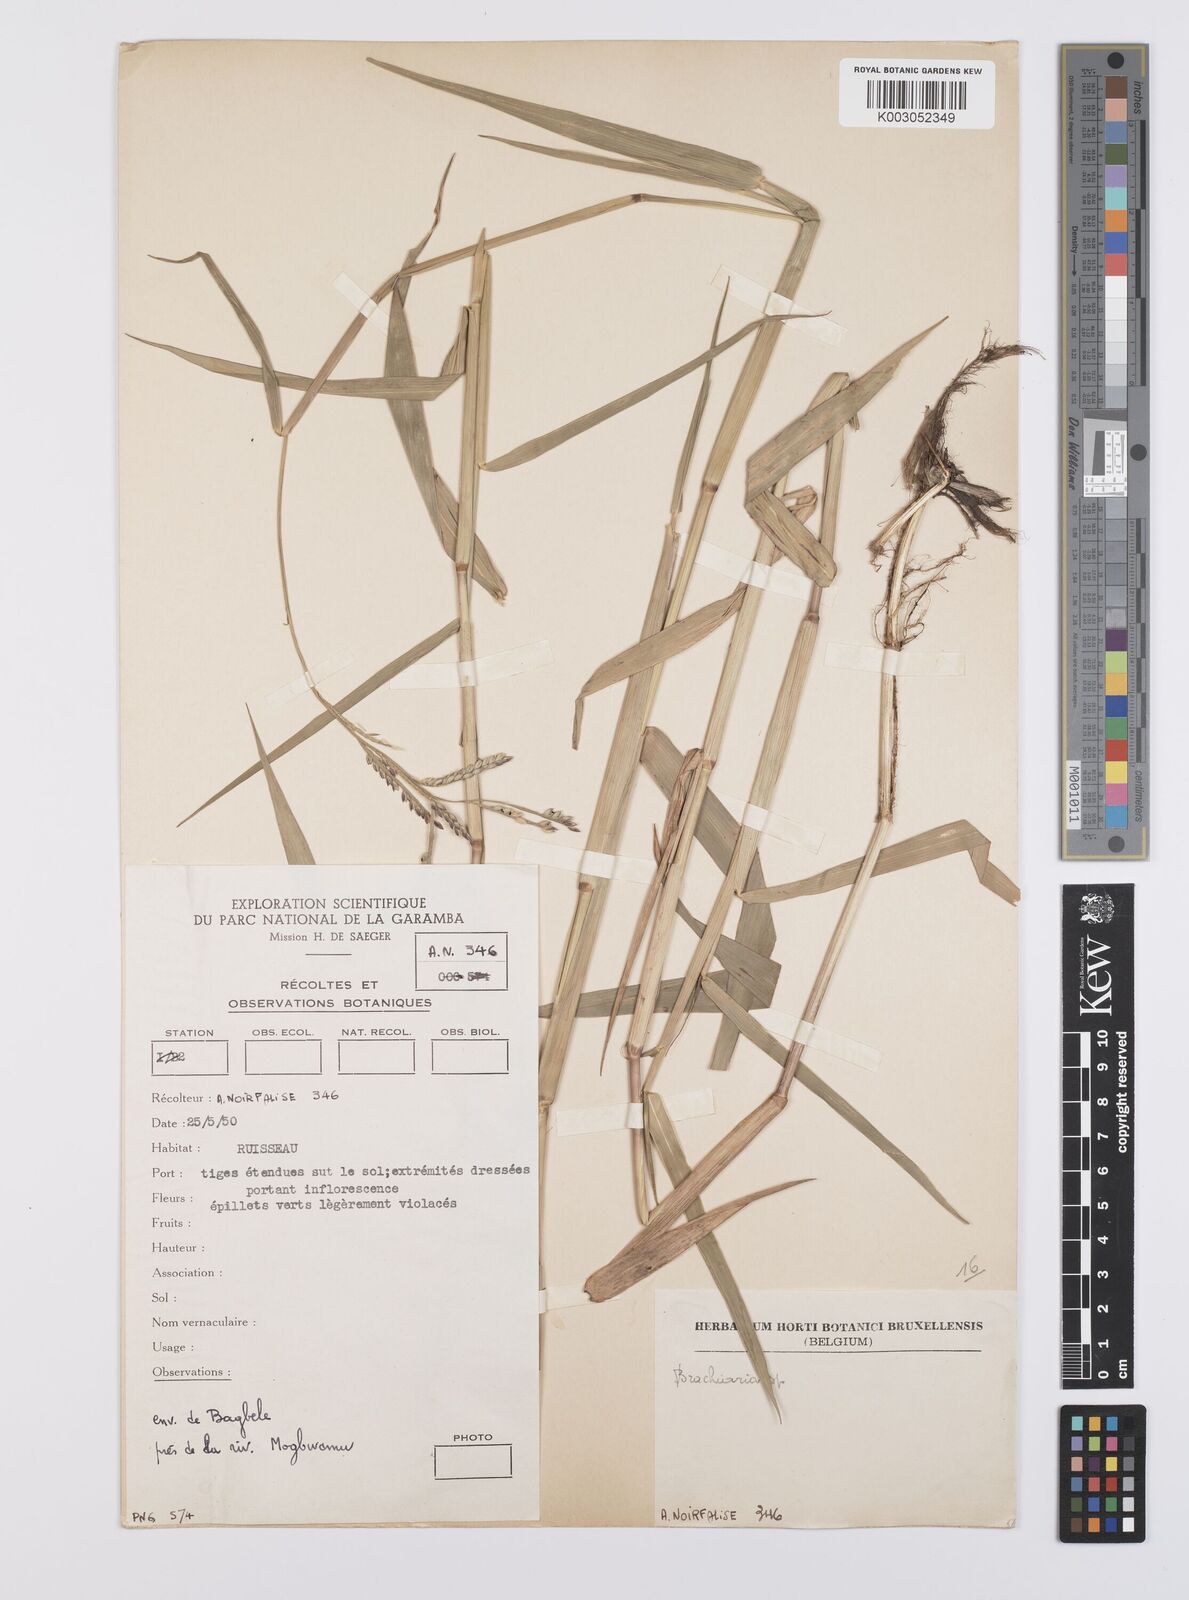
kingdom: Plantae
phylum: Tracheophyta
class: Liliopsida
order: Poales
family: Poaceae
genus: Urochloa
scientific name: Urochloa arrecta
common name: African signalgrass
